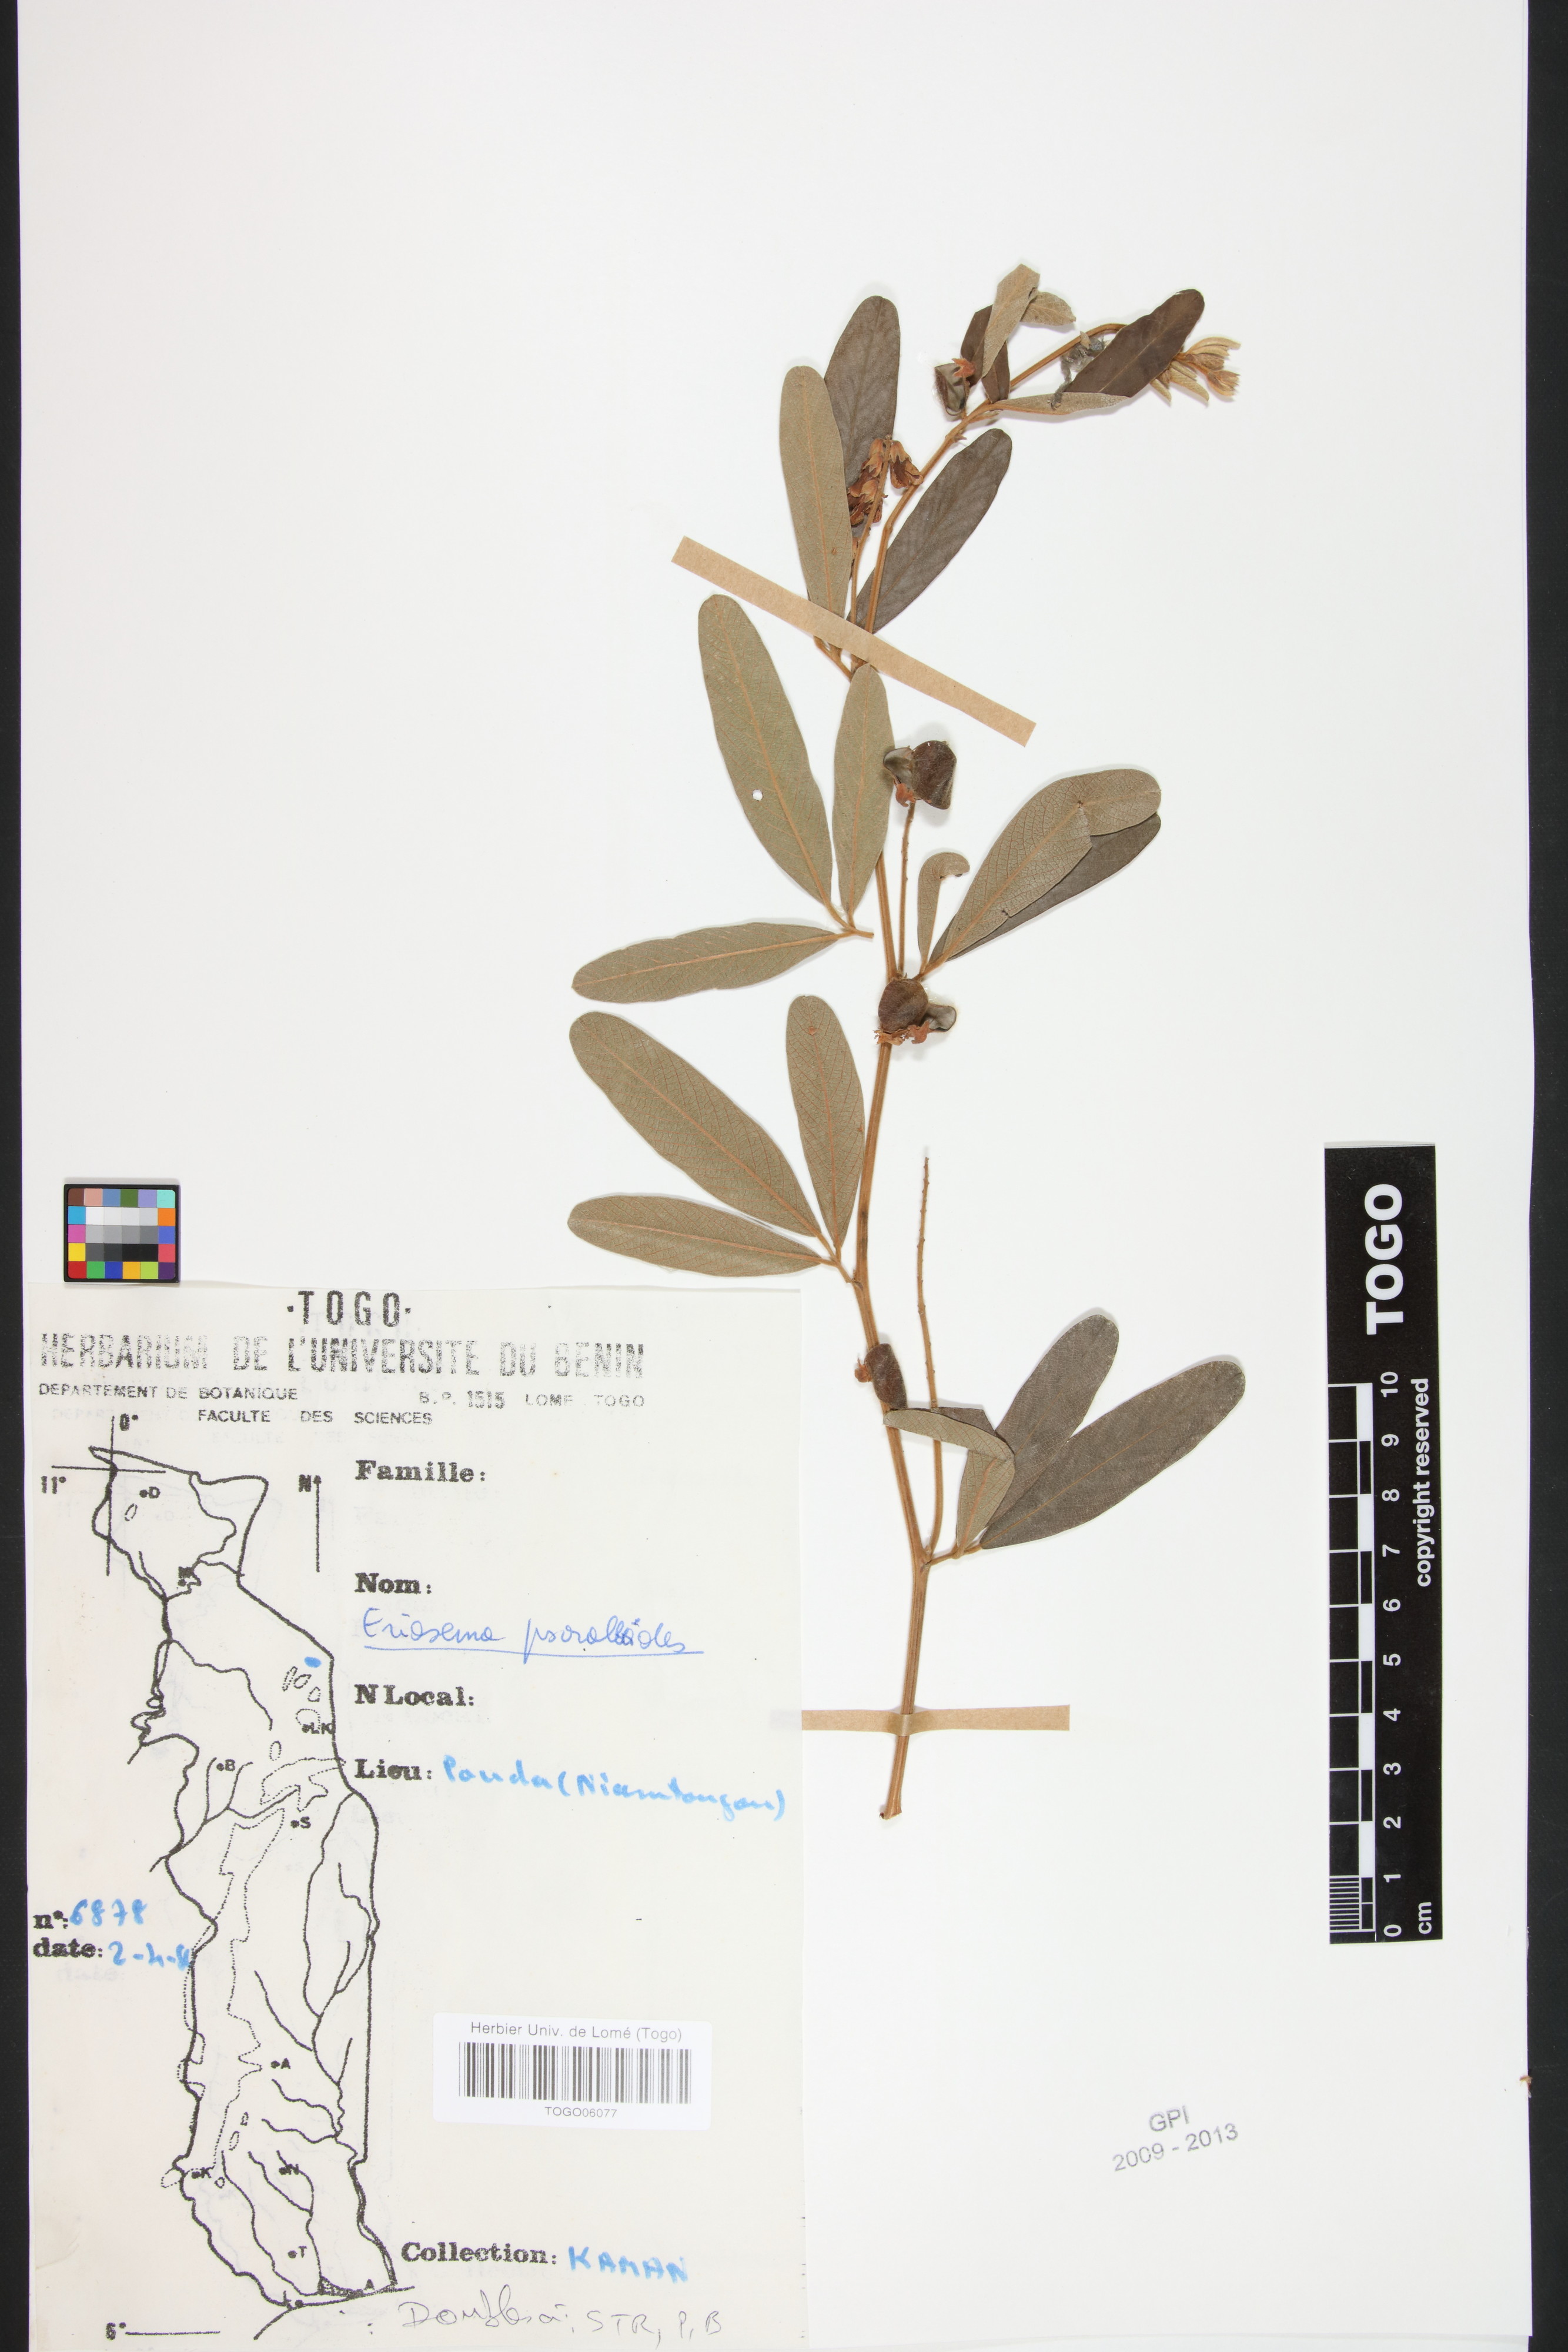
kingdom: Plantae
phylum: Tracheophyta
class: Magnoliopsida
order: Fabales
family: Fabaceae
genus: Eriosema
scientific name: Eriosema psoraleoides
